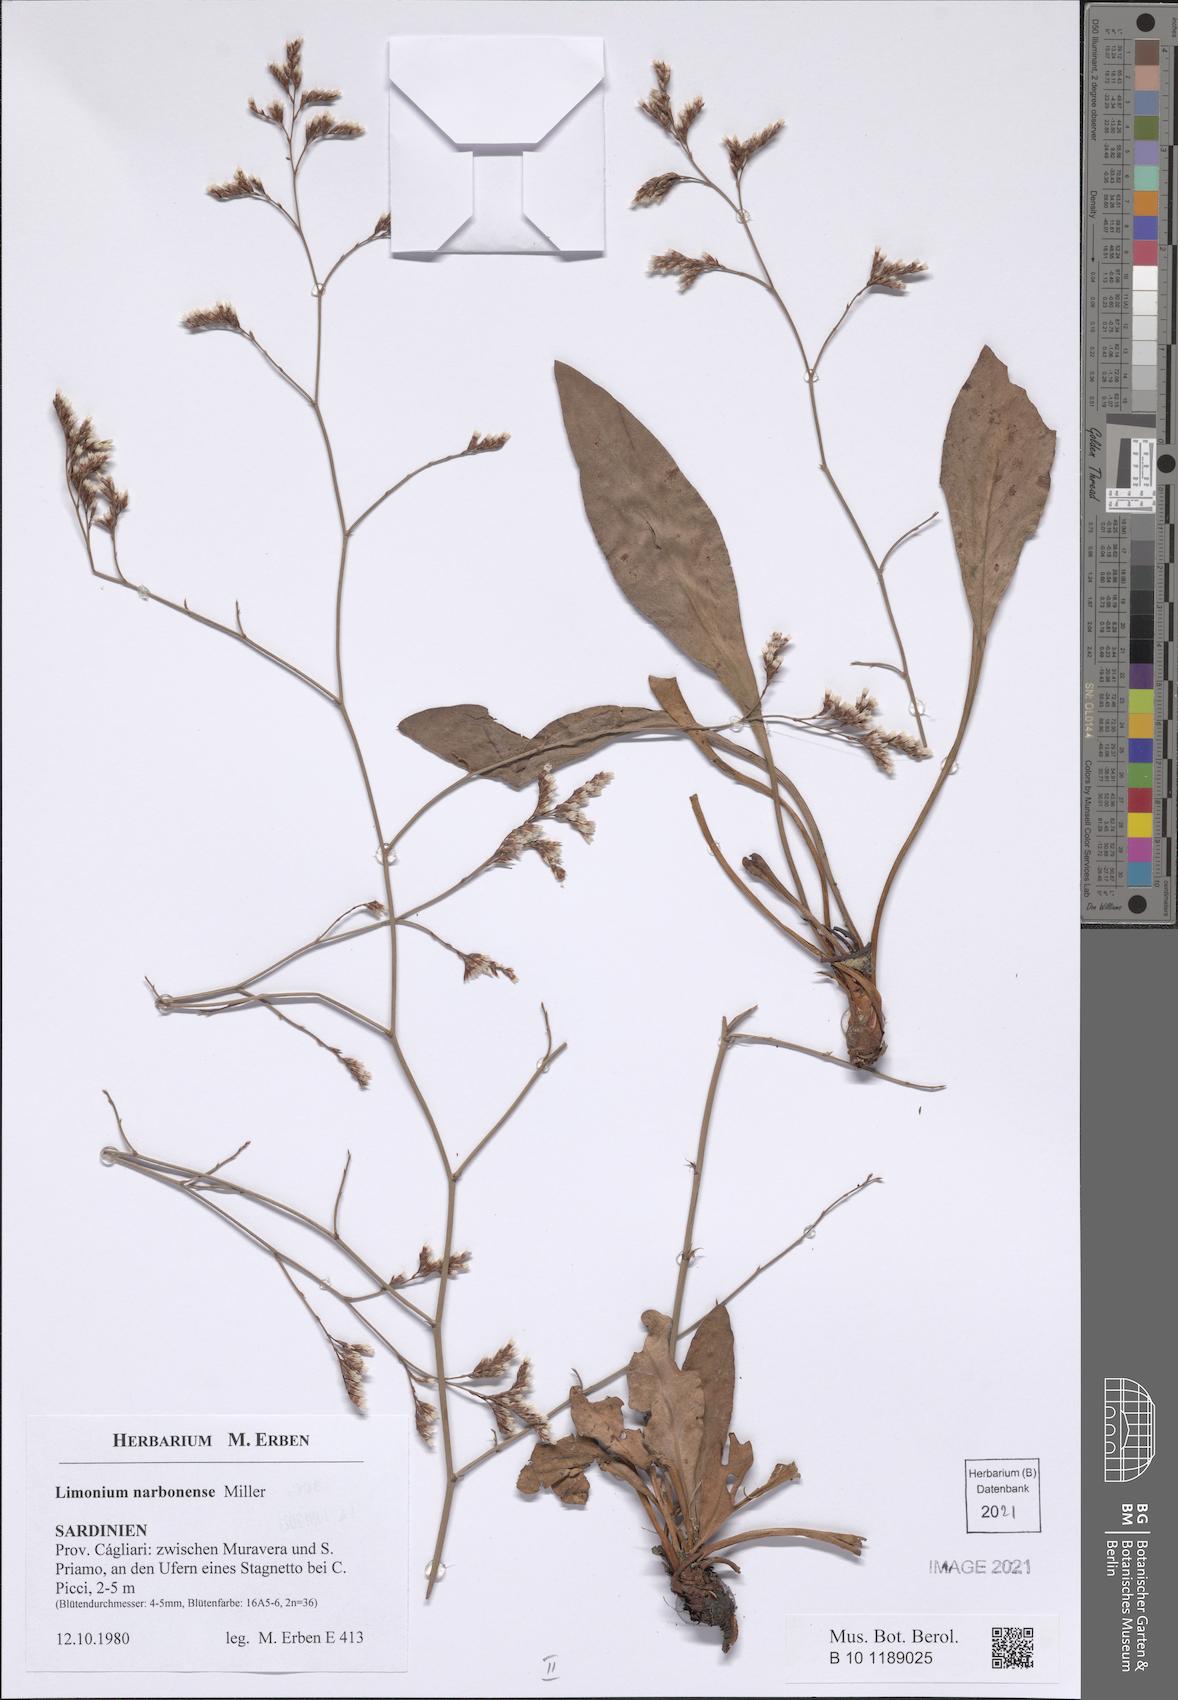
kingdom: Plantae
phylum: Tracheophyta
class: Magnoliopsida
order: Caryophyllales
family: Plumbaginaceae
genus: Limonium
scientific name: Limonium narbonense
